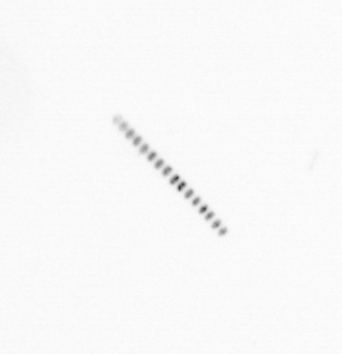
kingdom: Chromista
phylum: Ochrophyta
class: Bacillariophyceae
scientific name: Bacillariophyceae
